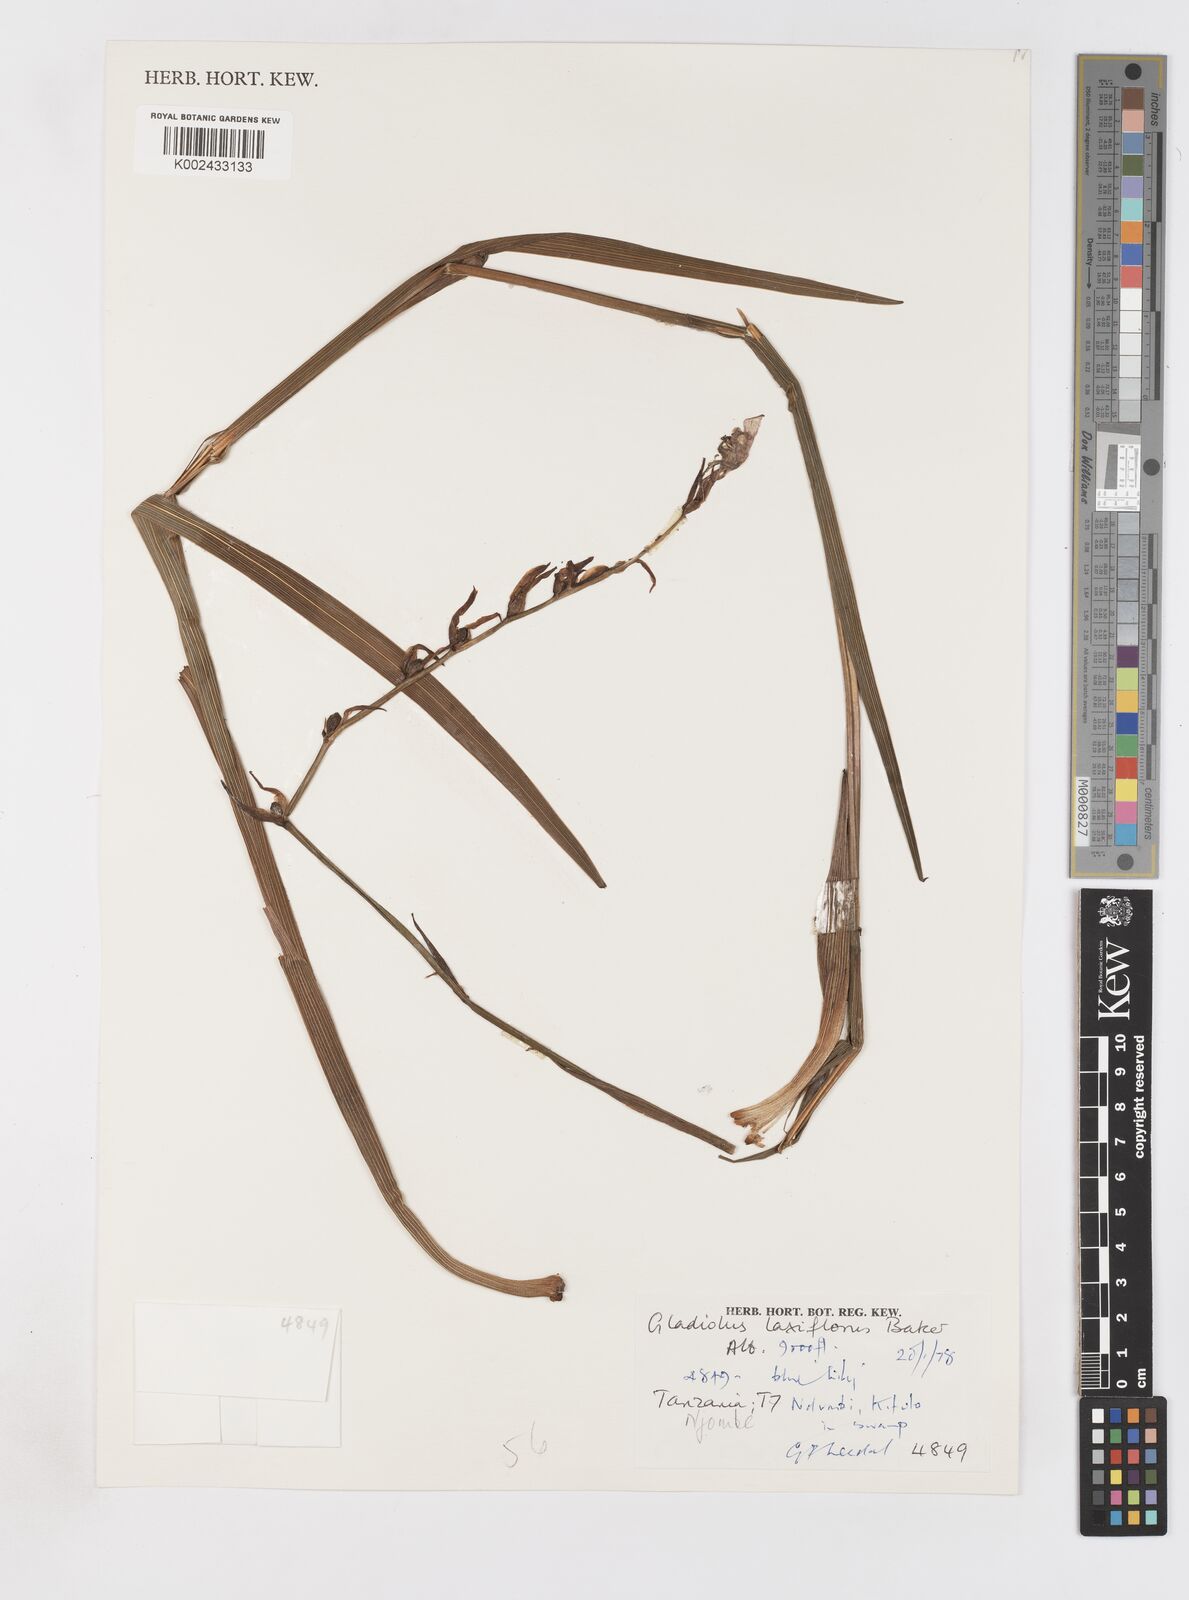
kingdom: Plantae
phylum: Tracheophyta
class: Liliopsida
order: Asparagales
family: Iridaceae
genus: Gladiolus
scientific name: Gladiolus laxiflorus
